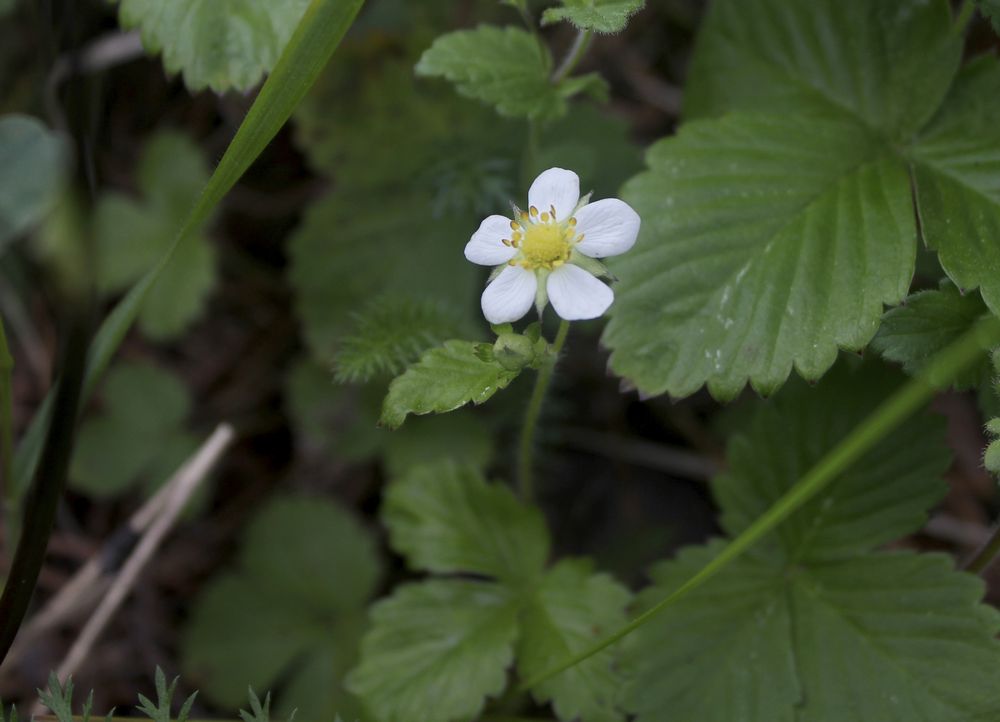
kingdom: Plantae
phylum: Tracheophyta
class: Magnoliopsida
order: Rosales
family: Rosaceae
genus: Fragaria
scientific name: Fragaria vesca
